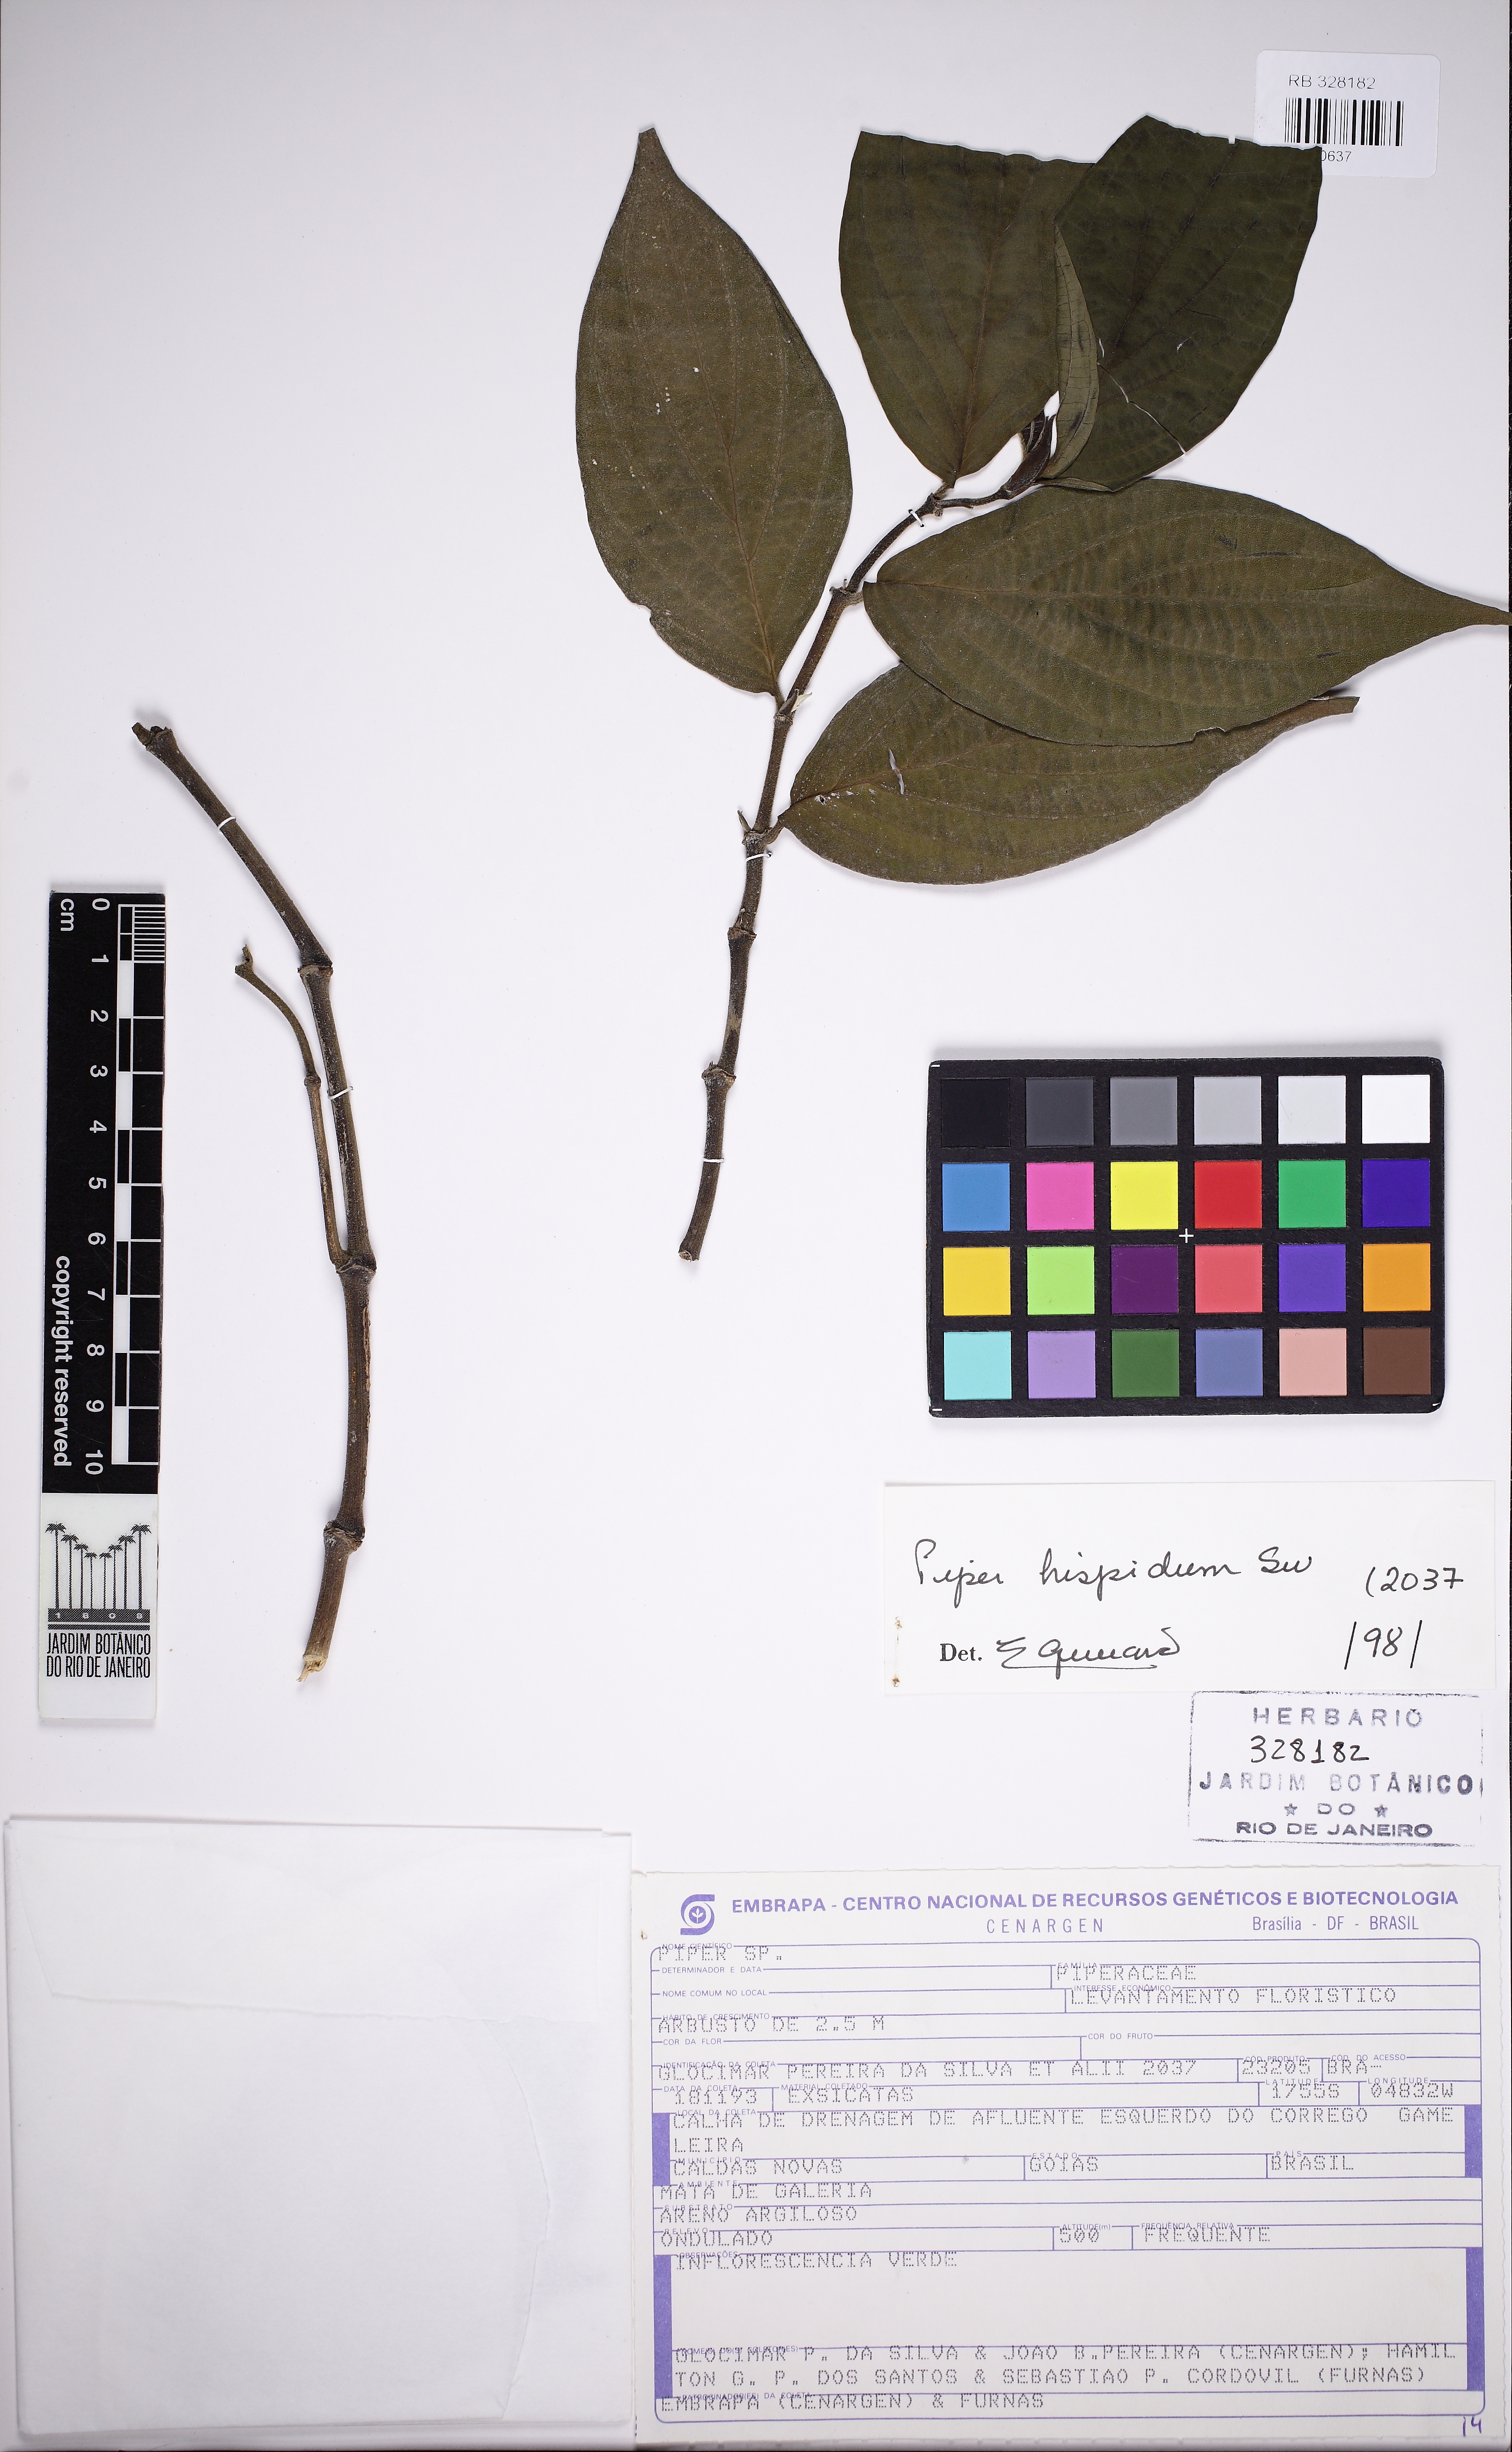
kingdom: Plantae
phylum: Tracheophyta
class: Magnoliopsida
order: Piperales
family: Piperaceae
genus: Piper
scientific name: Piper hispidum
